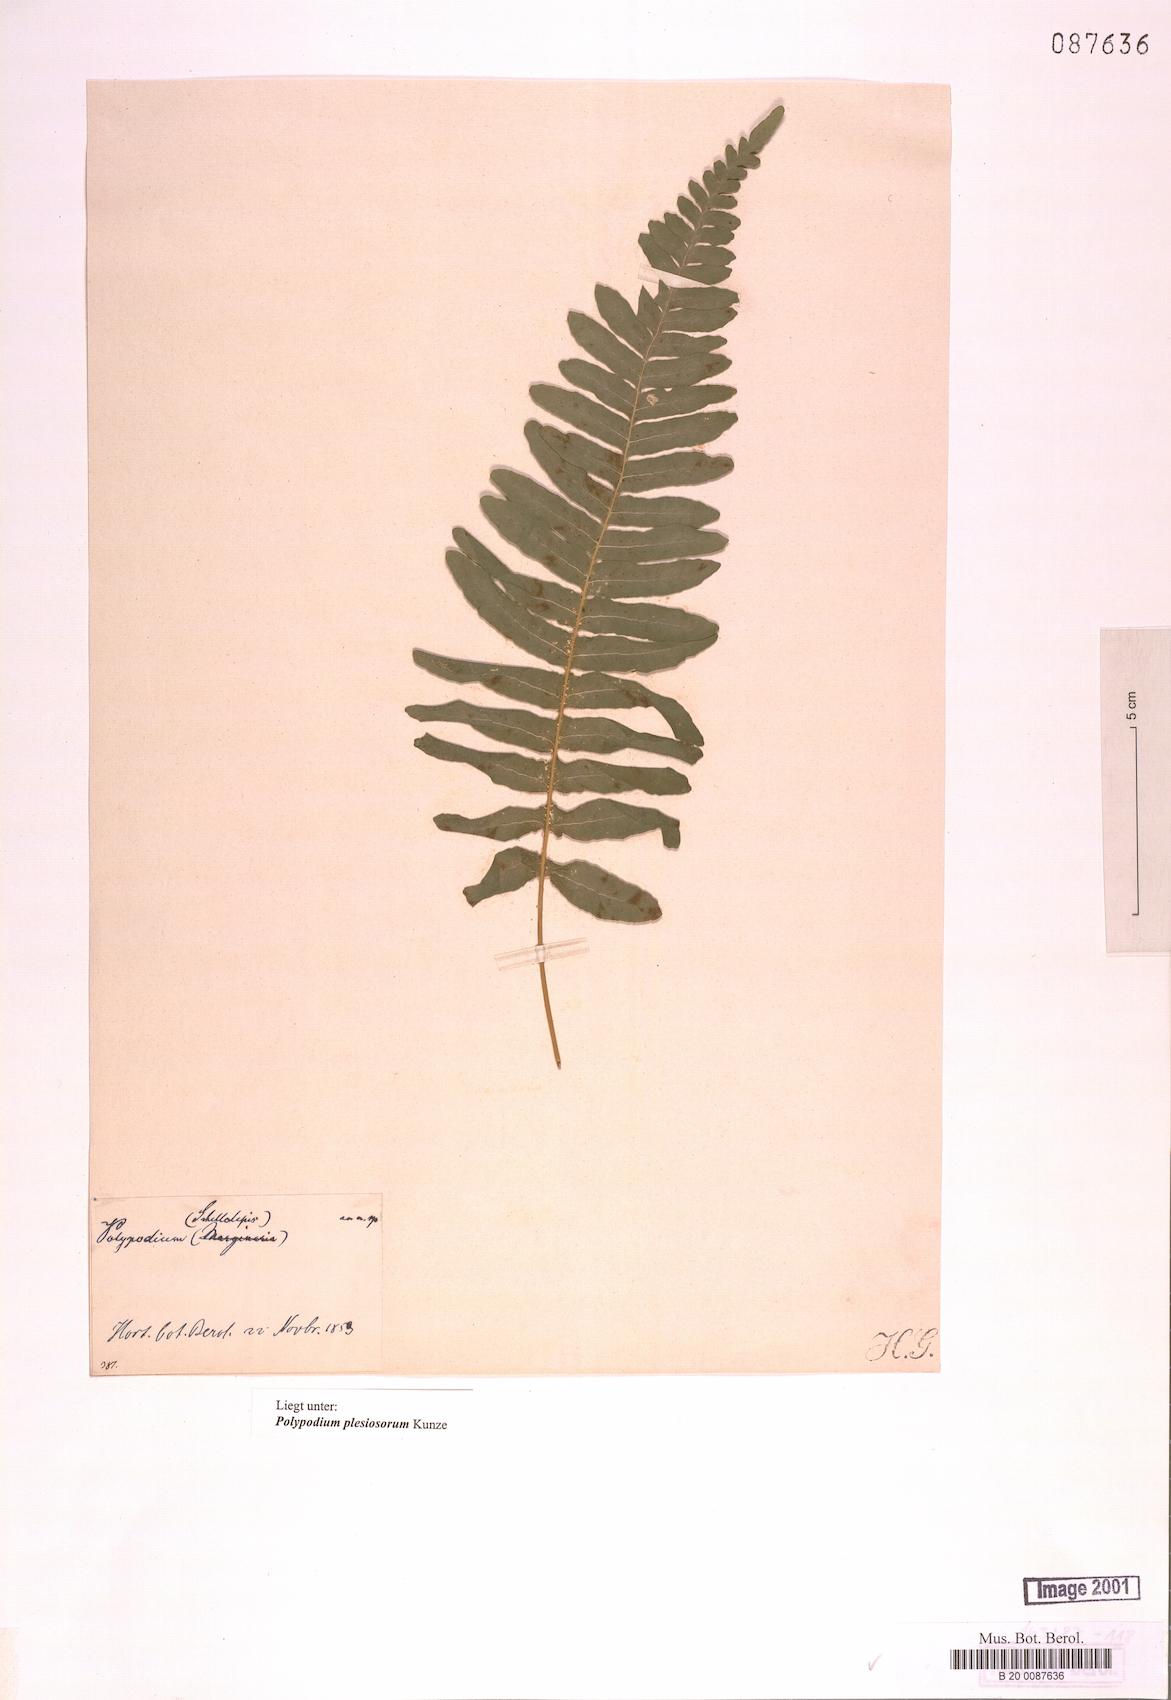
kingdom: Plantae
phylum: Tracheophyta
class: Polypodiopsida
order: Polypodiales
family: Polypodiaceae
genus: Polypodium
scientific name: Polypodium plesiosorum
